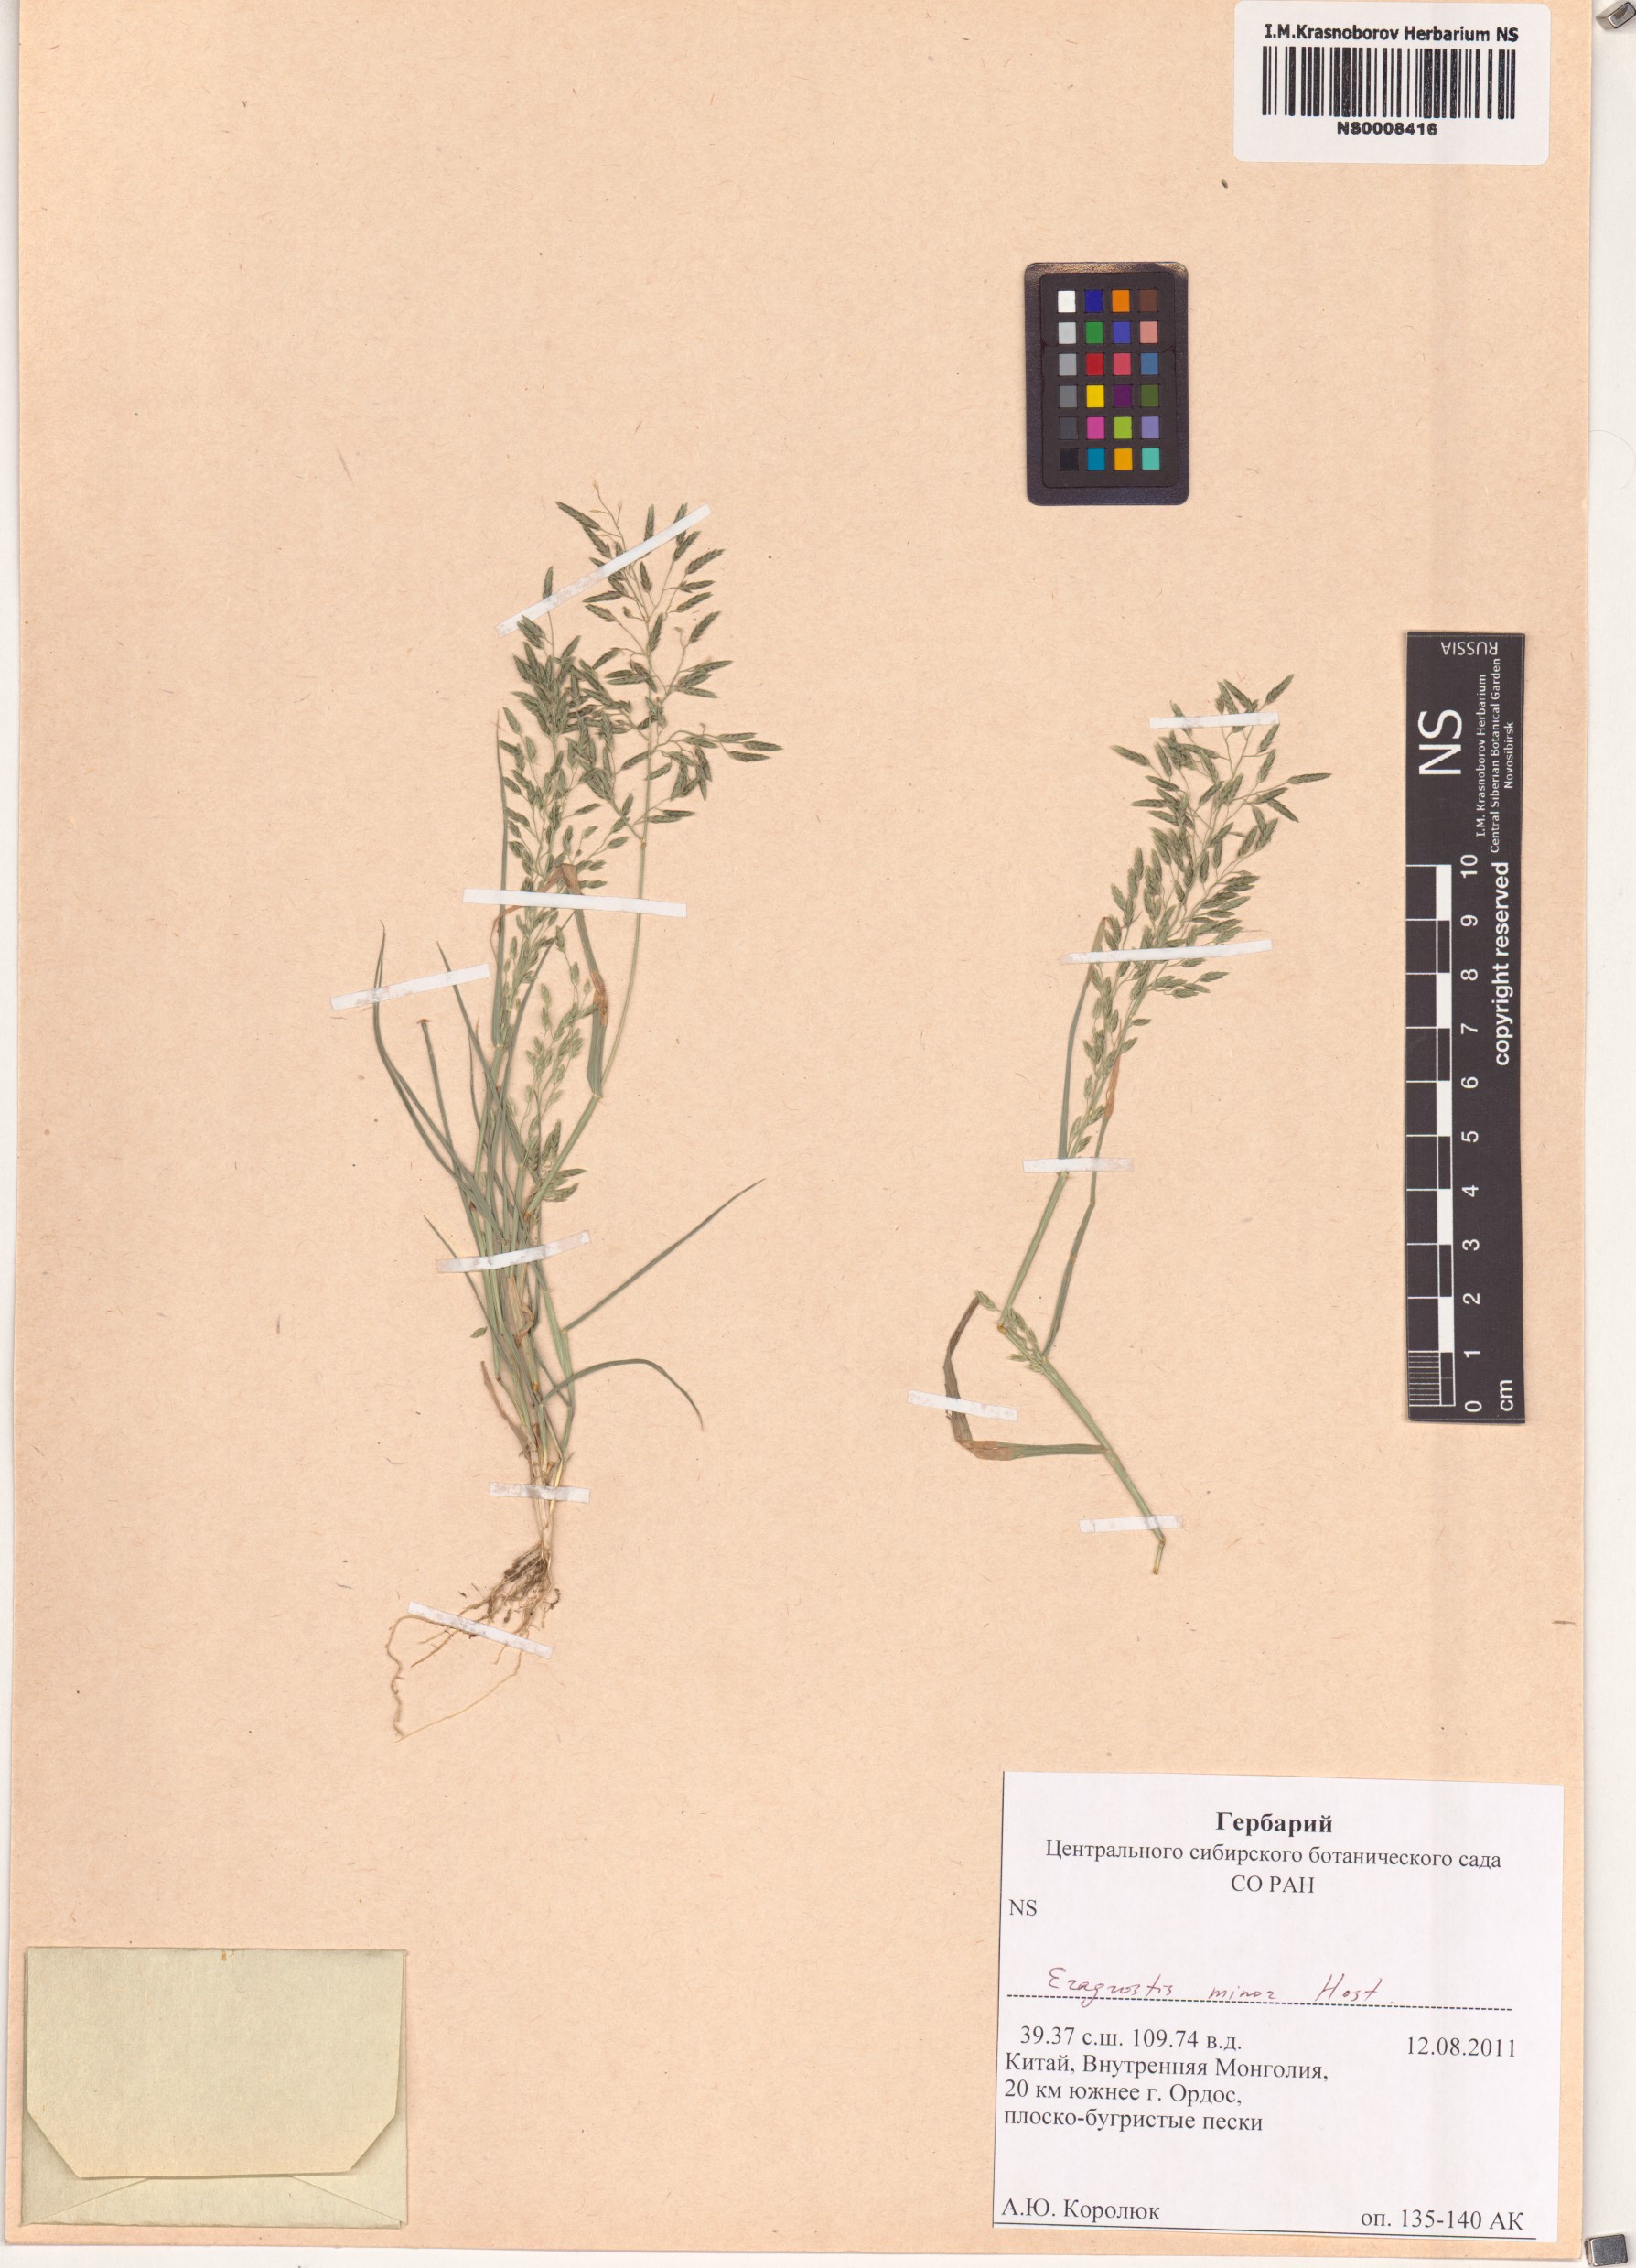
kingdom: Plantae
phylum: Tracheophyta
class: Liliopsida
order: Poales
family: Poaceae
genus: Eragrostis
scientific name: Eragrostis minor
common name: Small love-grass
